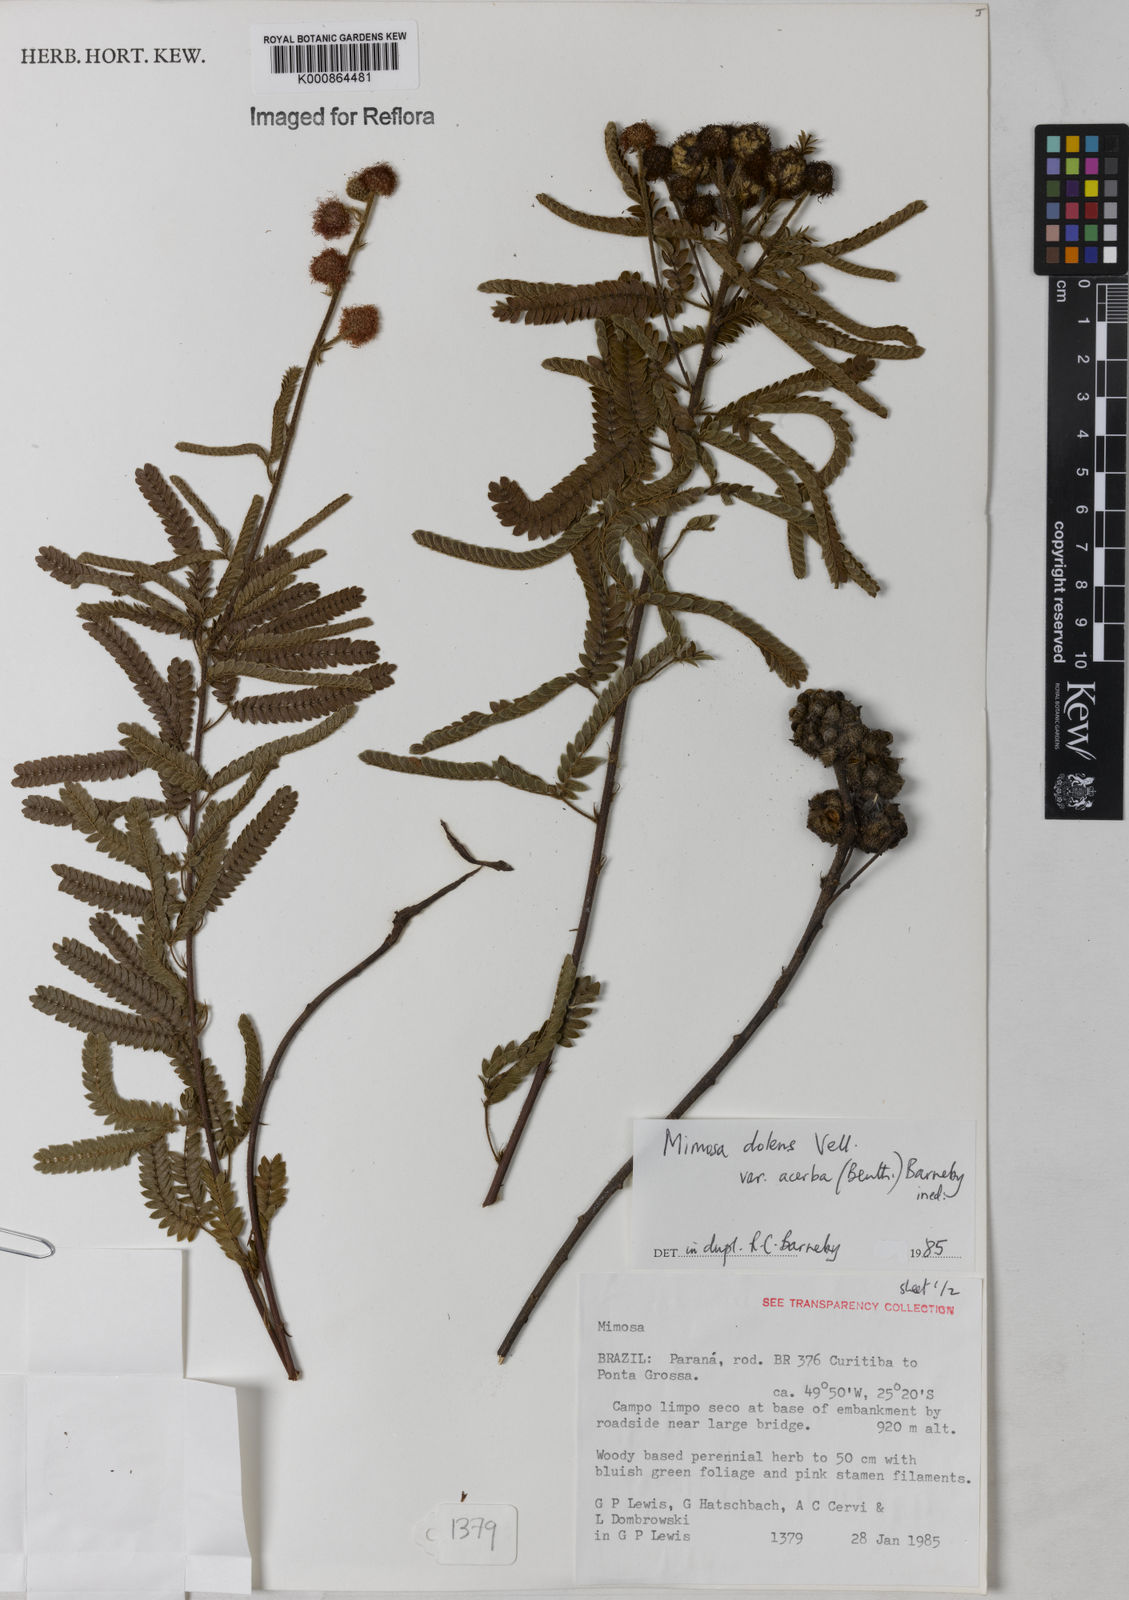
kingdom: Plantae
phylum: Tracheophyta
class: Magnoliopsida
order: Fabales
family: Fabaceae
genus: Mimosa
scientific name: Mimosa dolens
